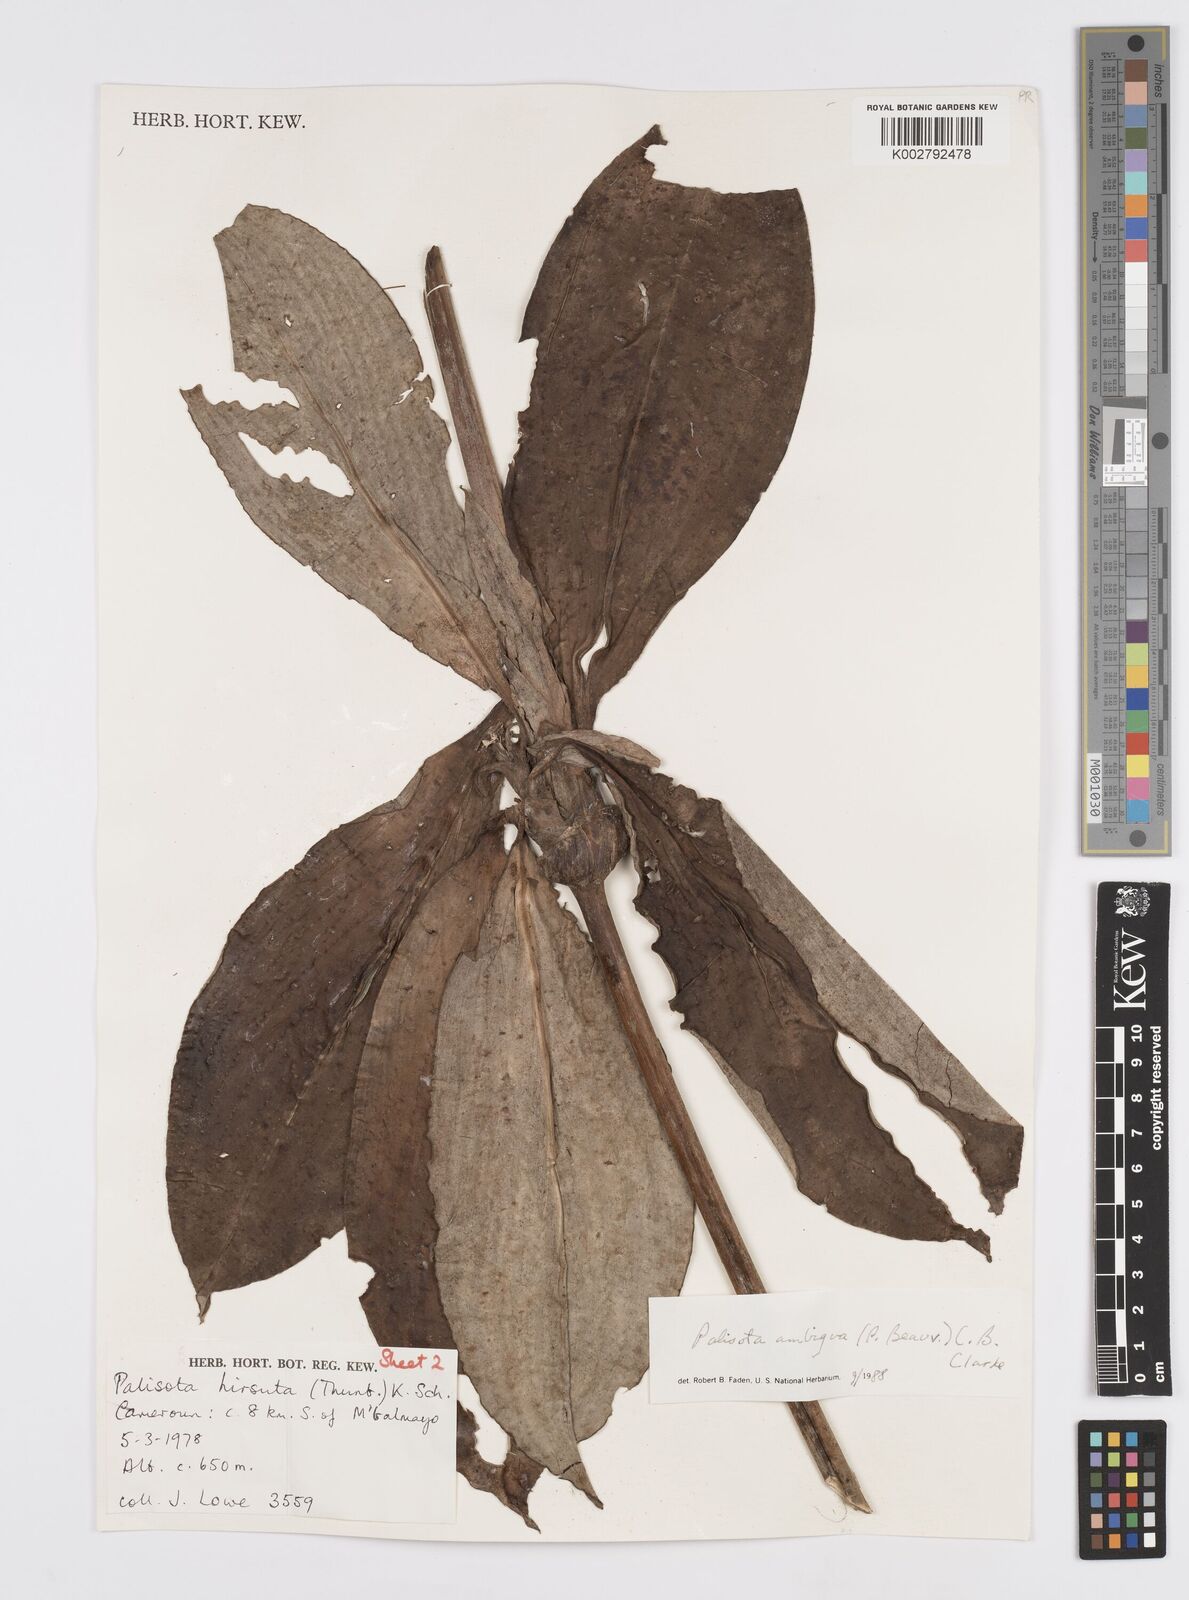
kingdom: Plantae
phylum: Tracheophyta
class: Liliopsida
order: Commelinales
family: Commelinaceae
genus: Palisota
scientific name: Palisota ambigua
